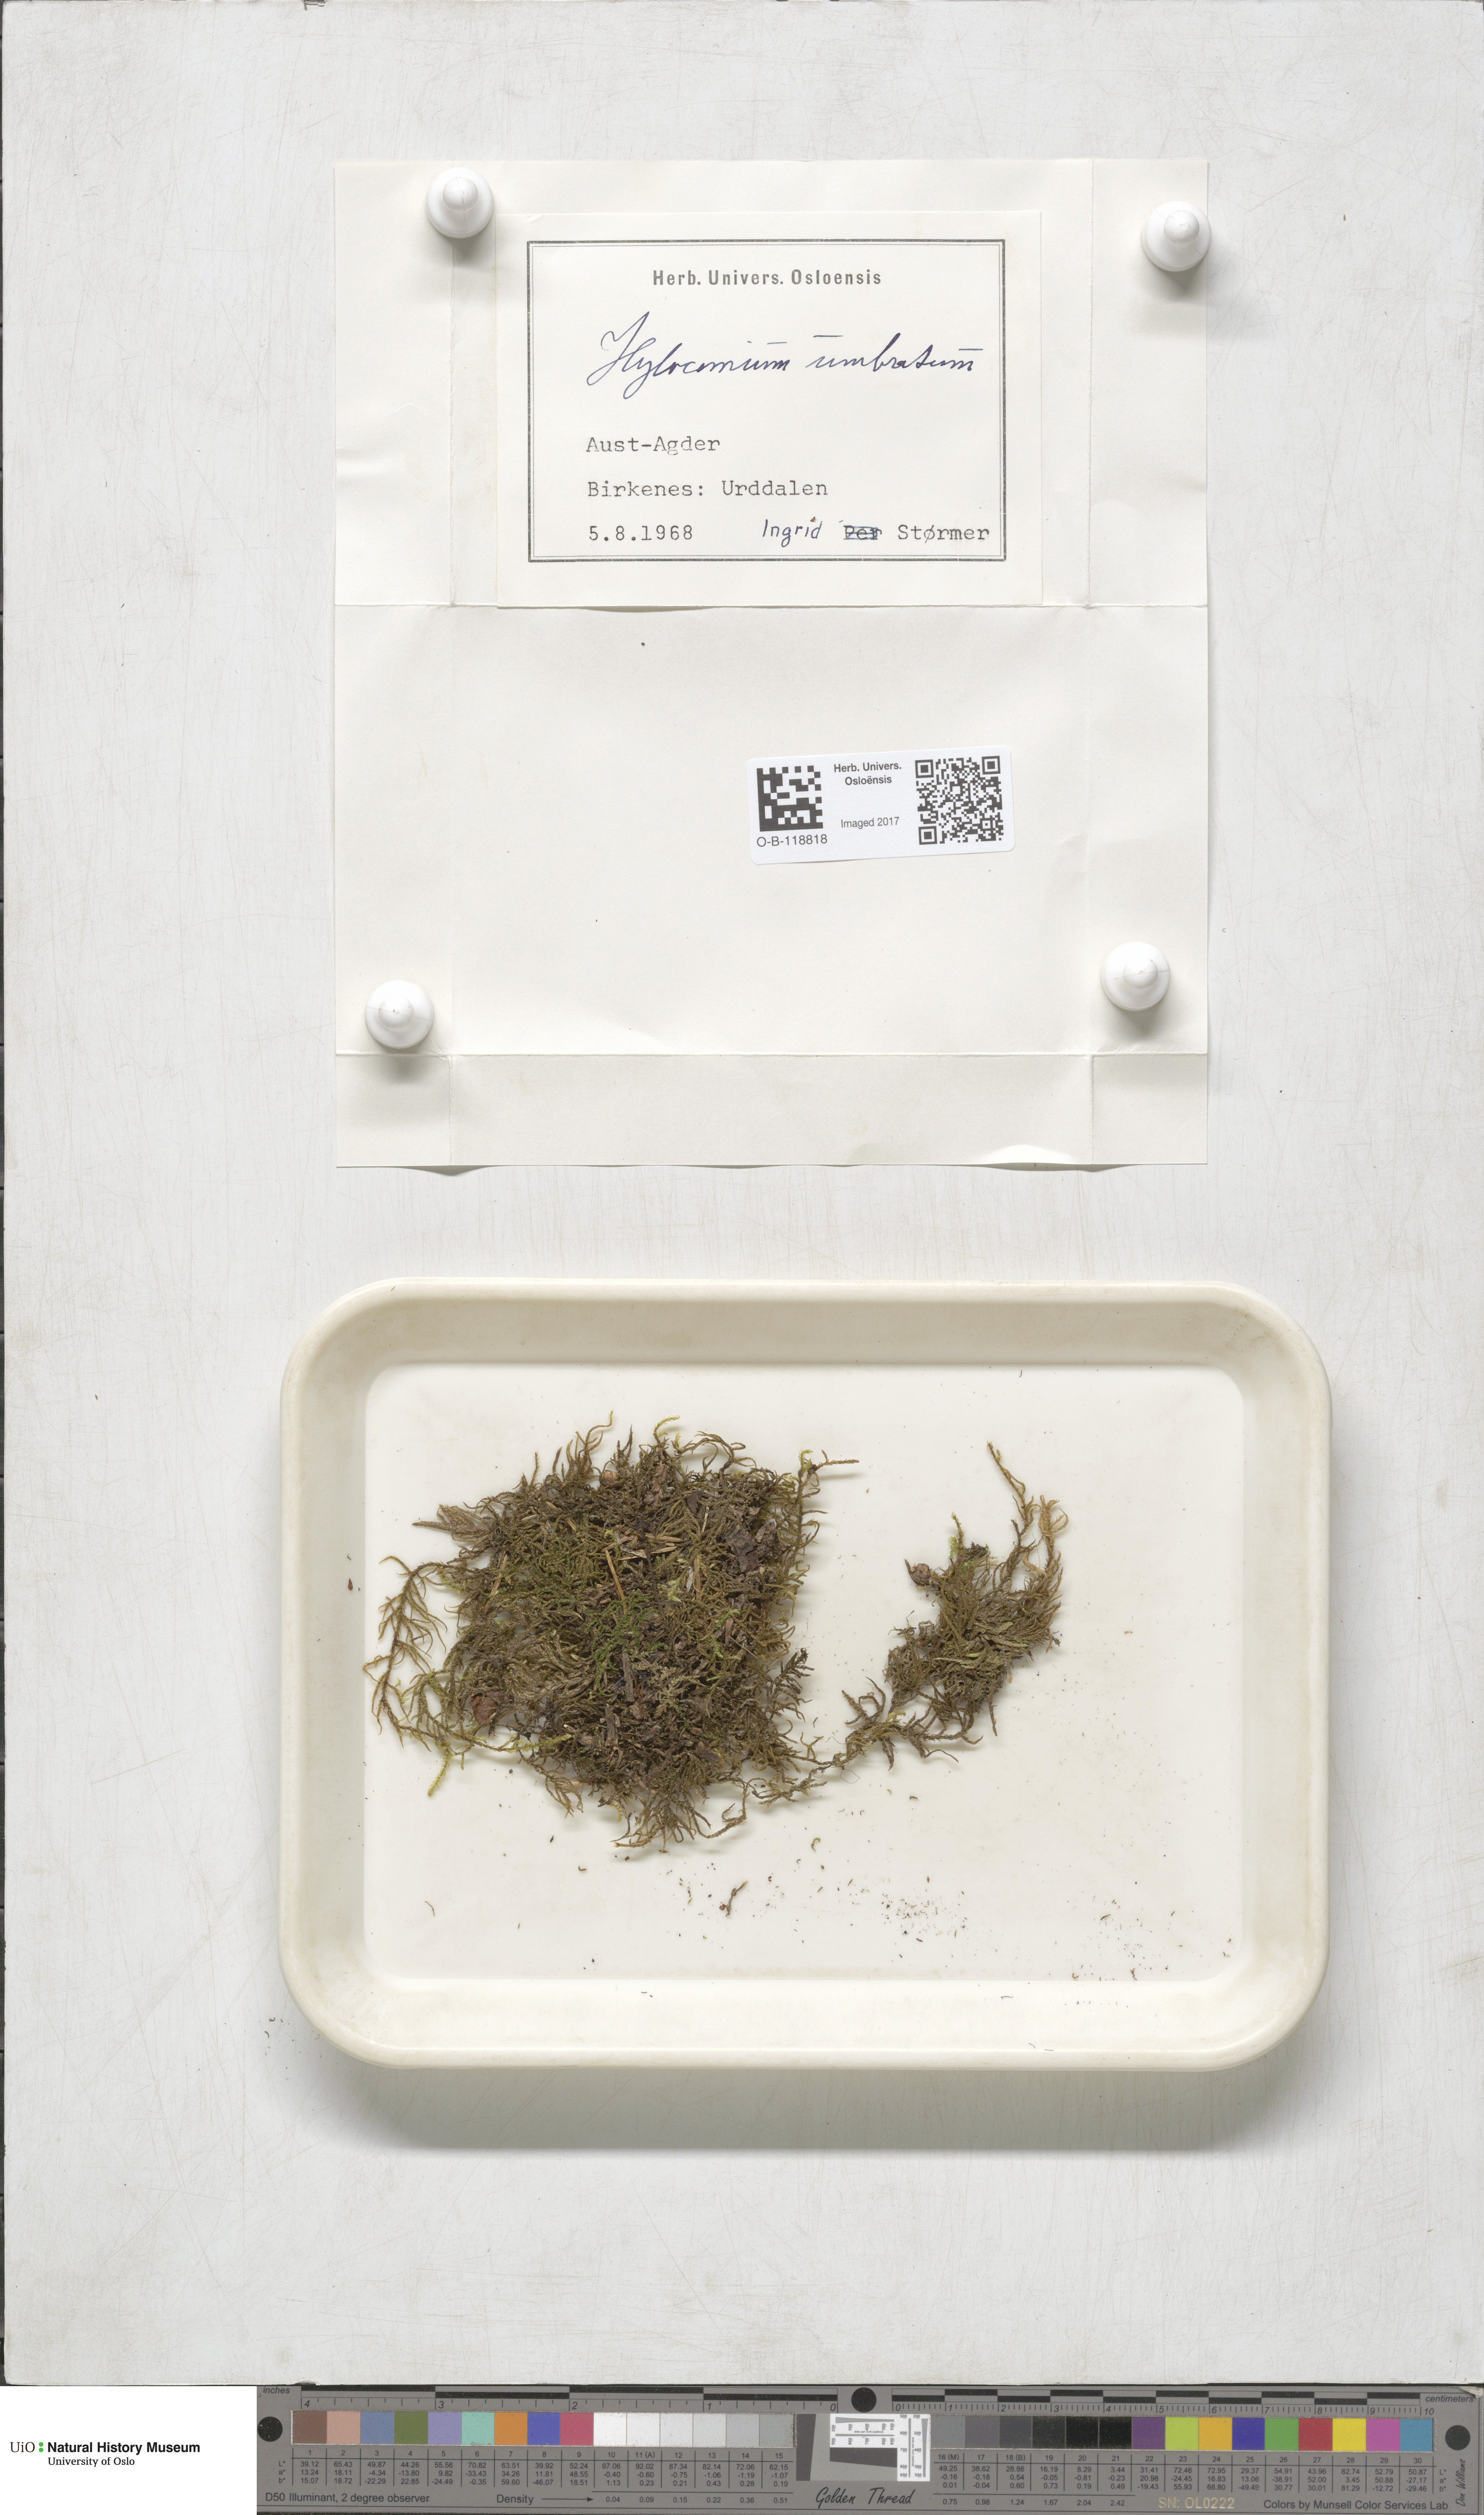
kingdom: Plantae
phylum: Bryophyta
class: Bryopsida
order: Hypnales
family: Hylocomiaceae
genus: Hylocomiastrum
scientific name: Hylocomiastrum umbratum
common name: Shaded woods moss
